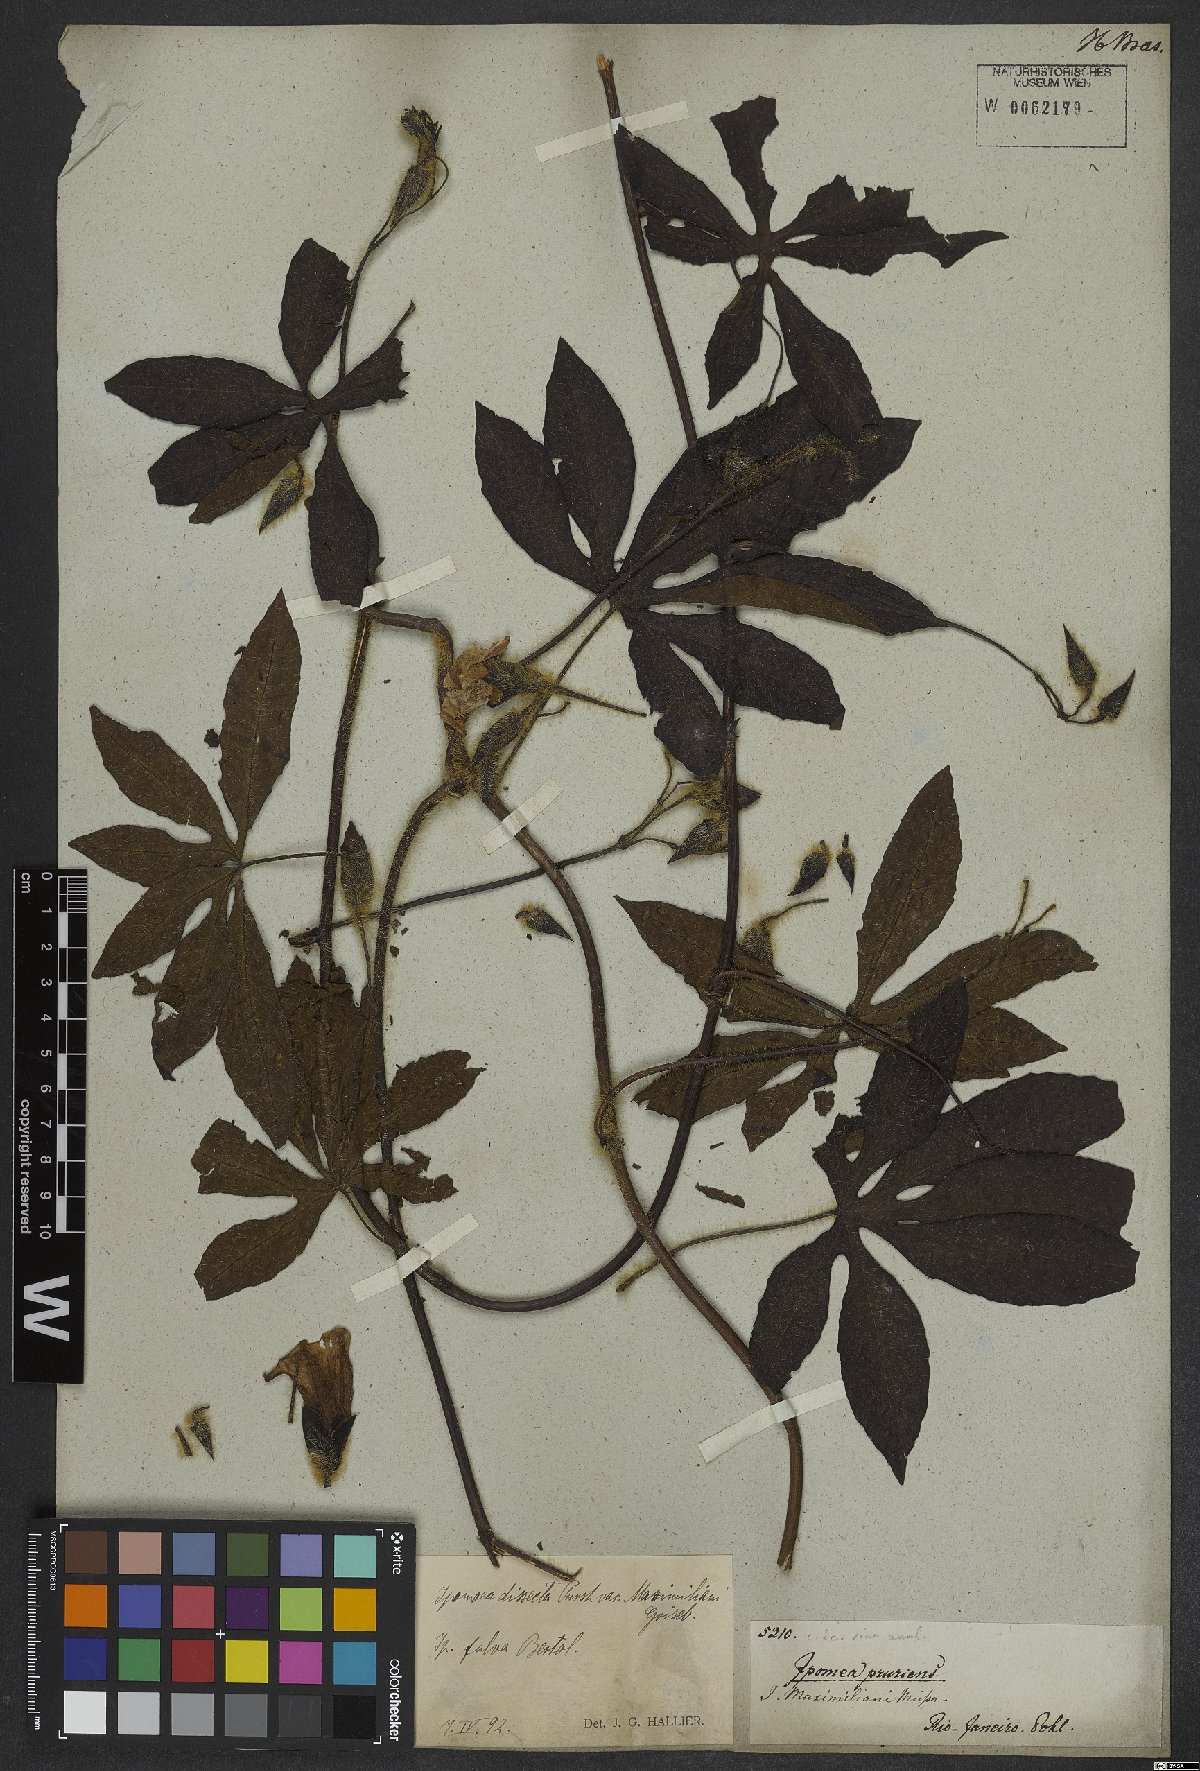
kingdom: Plantae
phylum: Tracheophyta
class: Magnoliopsida
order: Solanales
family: Convolvulaceae
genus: Distimake
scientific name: Distimake dissectus
